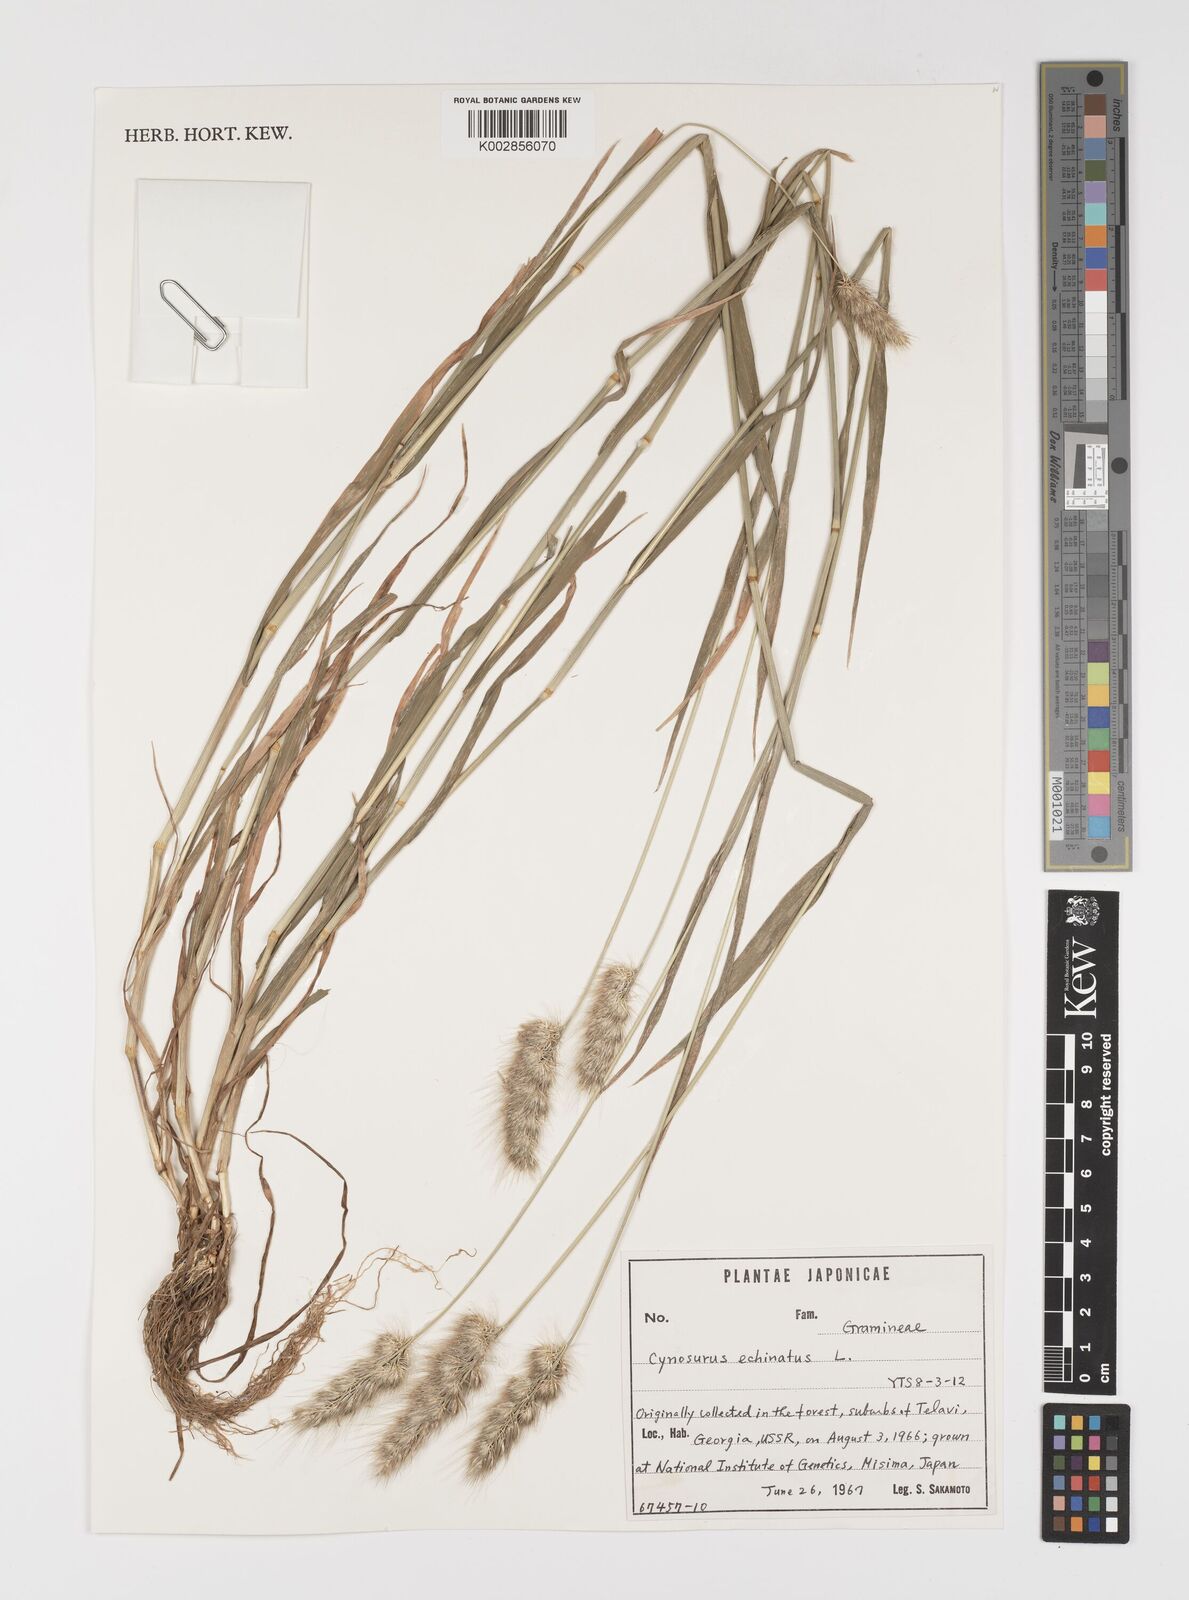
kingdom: Plantae
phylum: Tracheophyta
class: Liliopsida
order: Poales
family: Poaceae
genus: Cynosurus
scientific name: Cynosurus echinatus
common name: Rough dog's-tail
